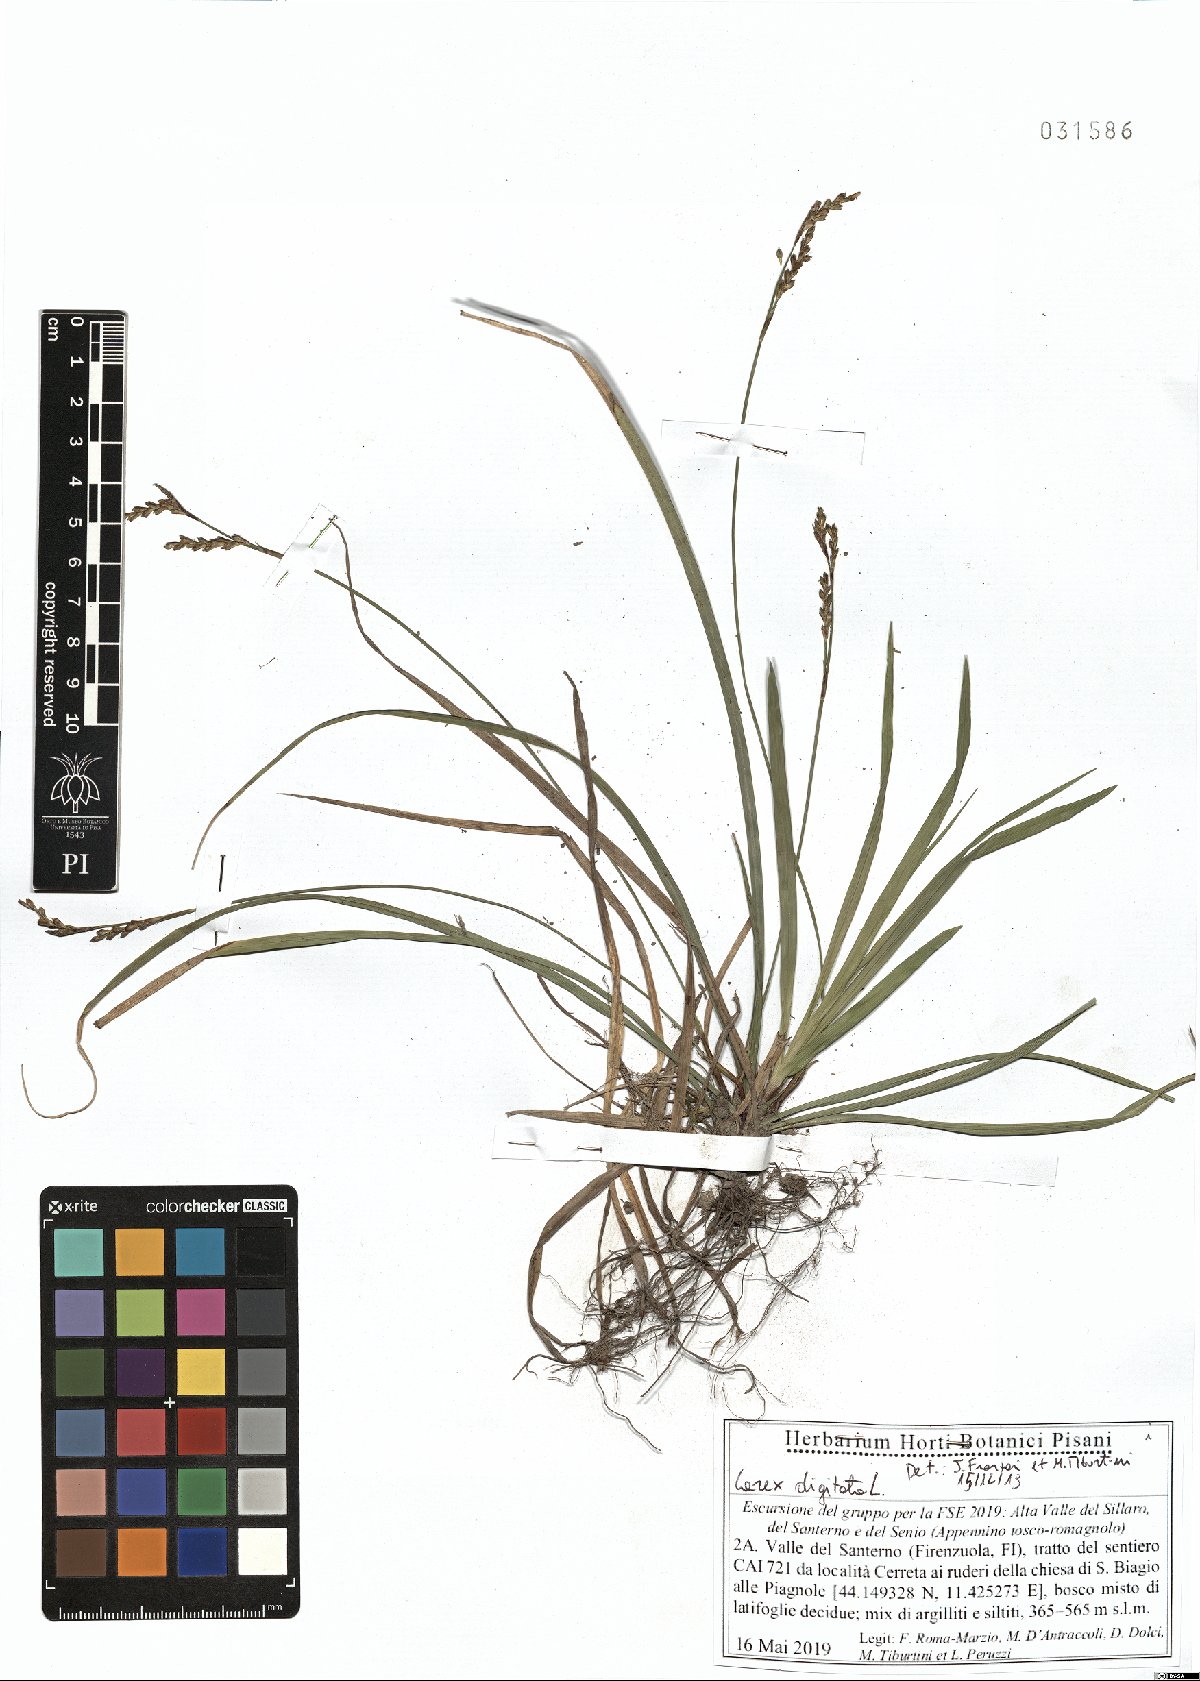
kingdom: Plantae
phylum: Tracheophyta
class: Liliopsida
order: Poales
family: Cyperaceae
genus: Carex
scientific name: Carex digitata
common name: Fingered sedge
